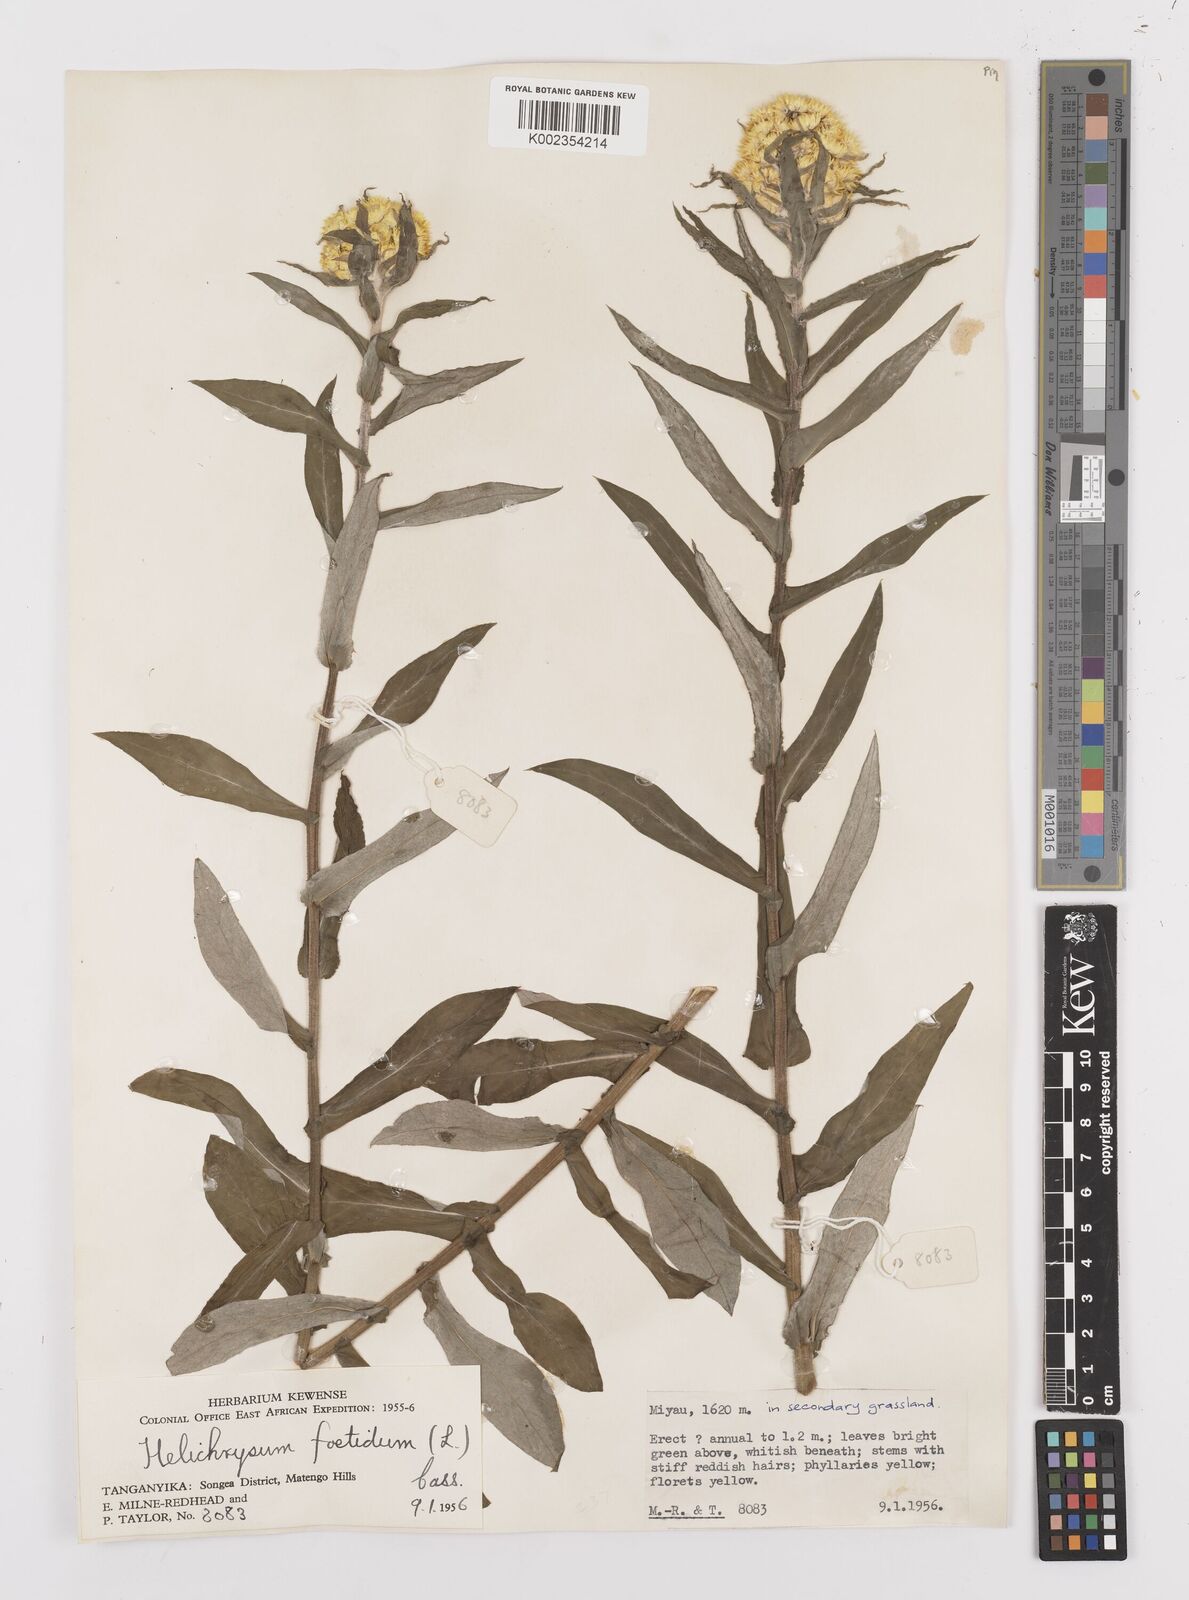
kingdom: Plantae
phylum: Tracheophyta
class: Magnoliopsida
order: Asterales
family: Asteraceae
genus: Helichrysum
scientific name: Helichrysum
